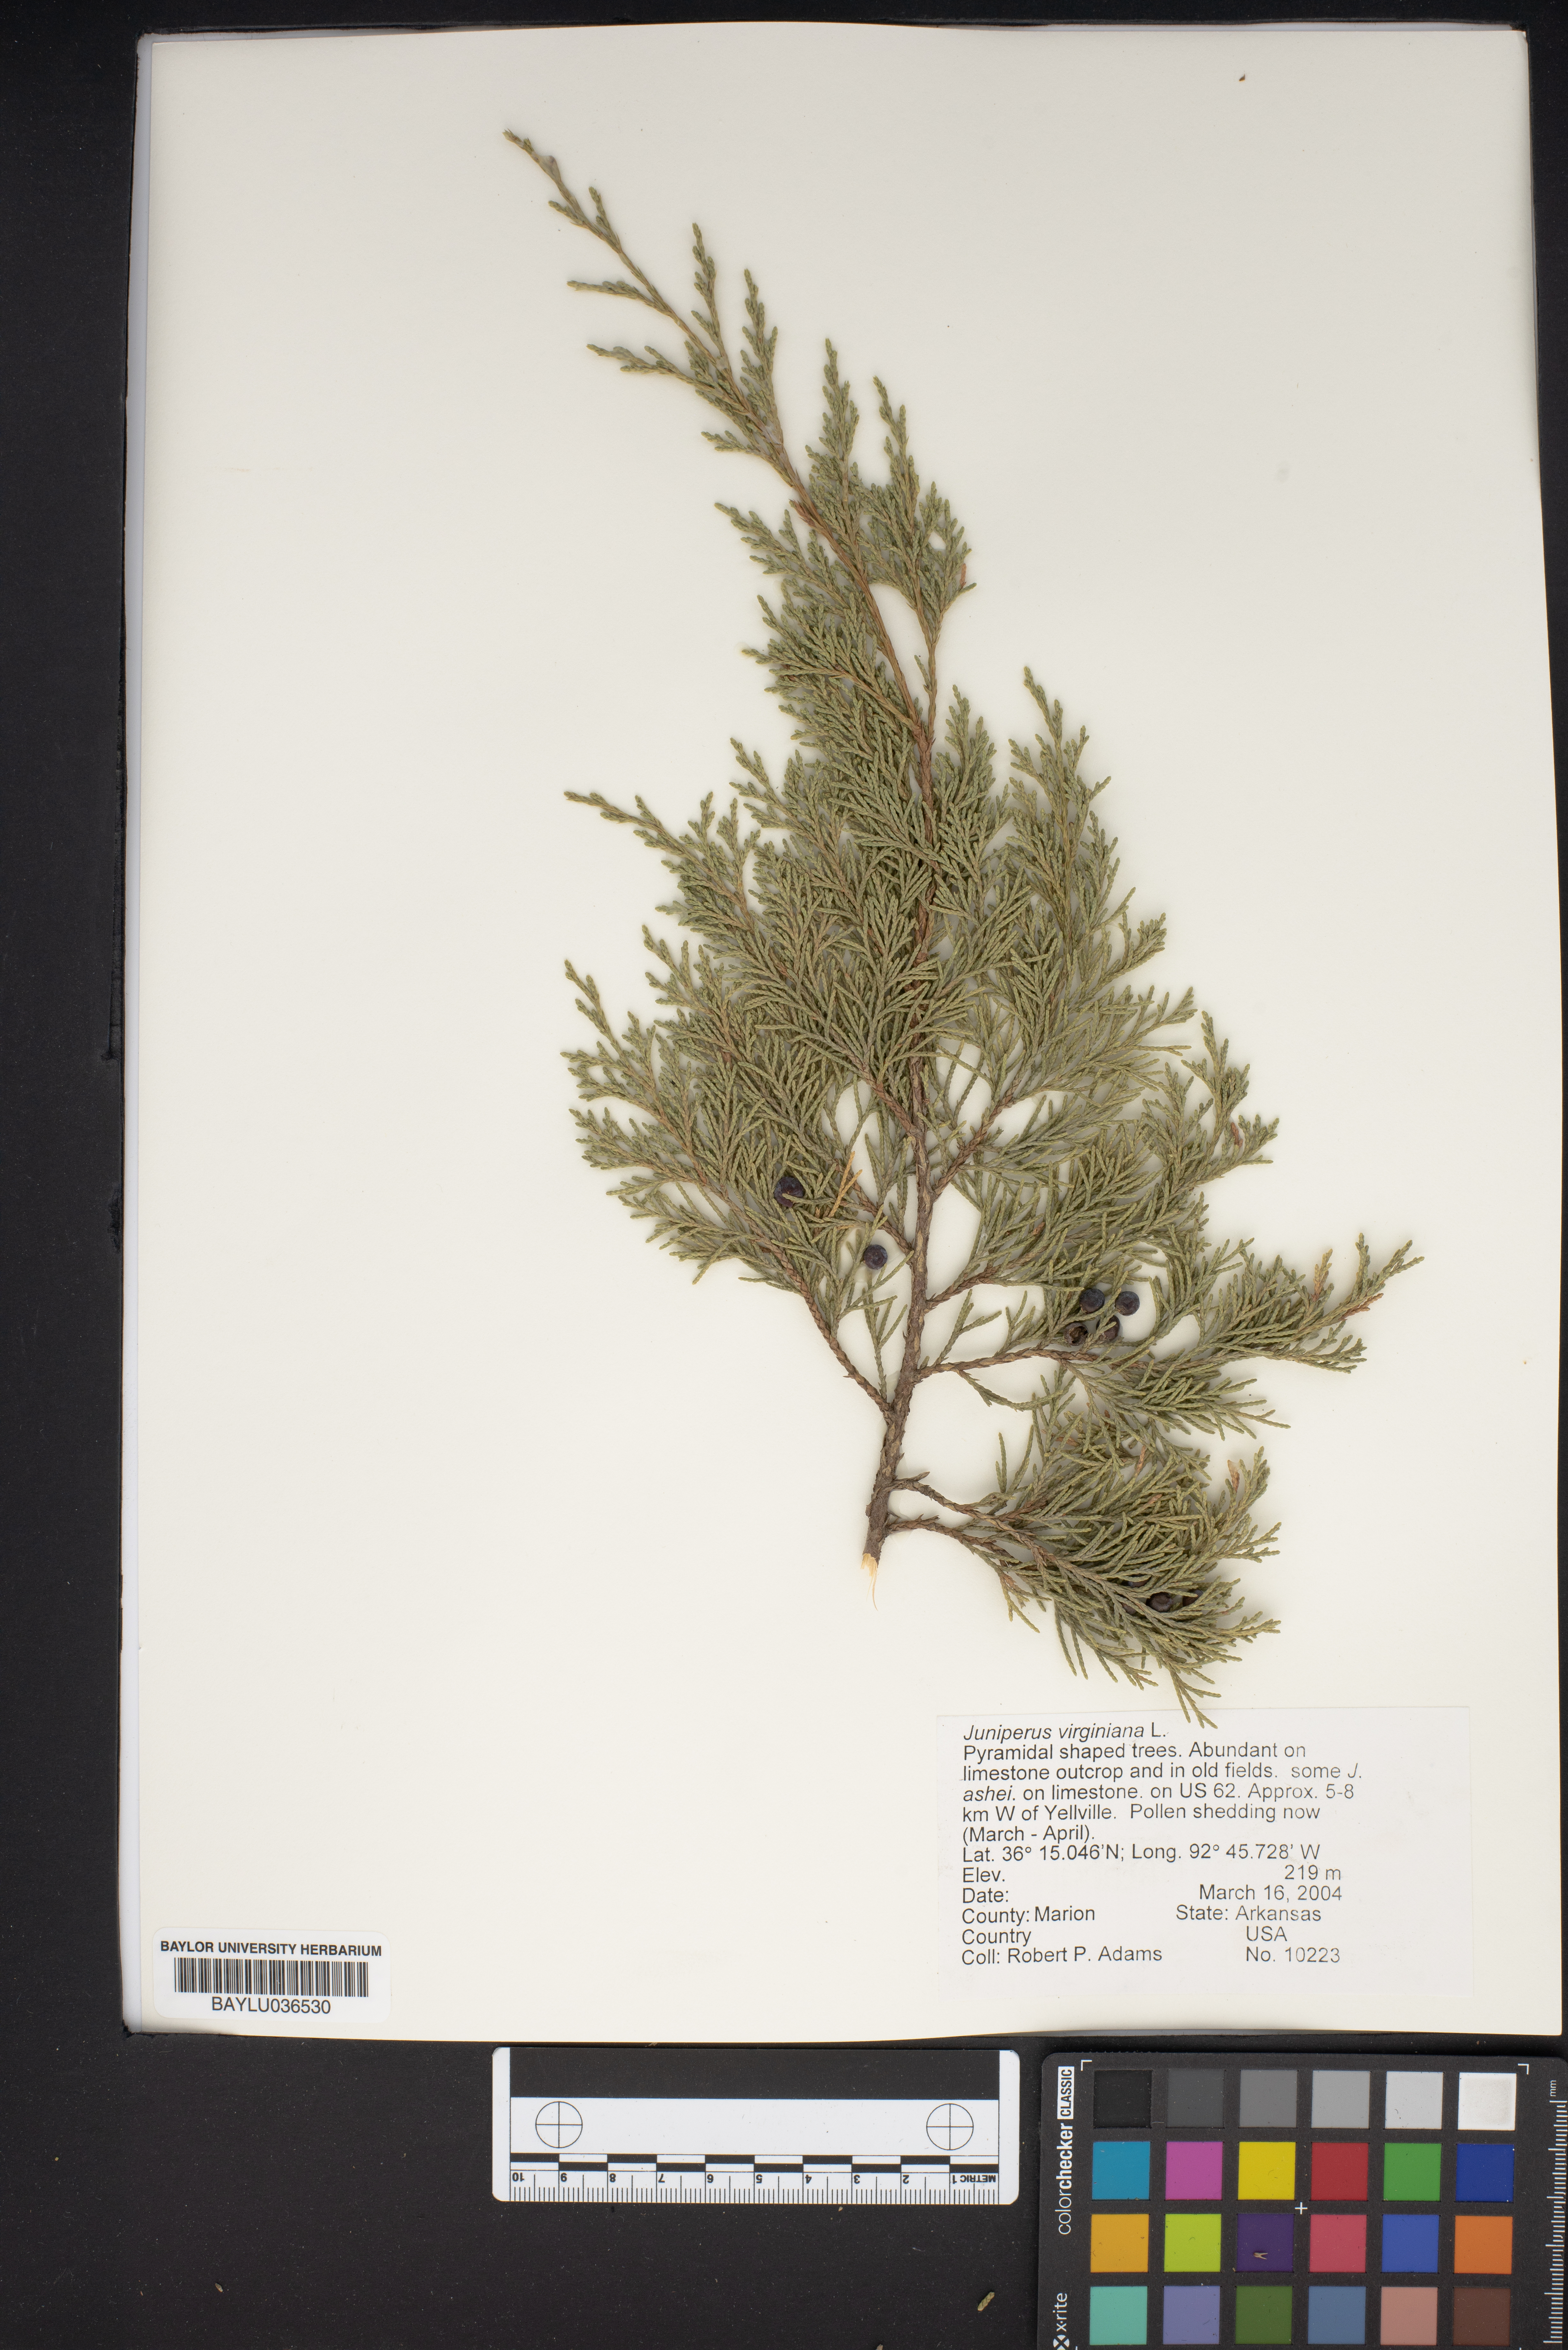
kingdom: Plantae
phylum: Tracheophyta
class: Pinopsida
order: Pinales
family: Cupressaceae
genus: Juniperus
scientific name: Juniperus virginiana
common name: Red juniper
